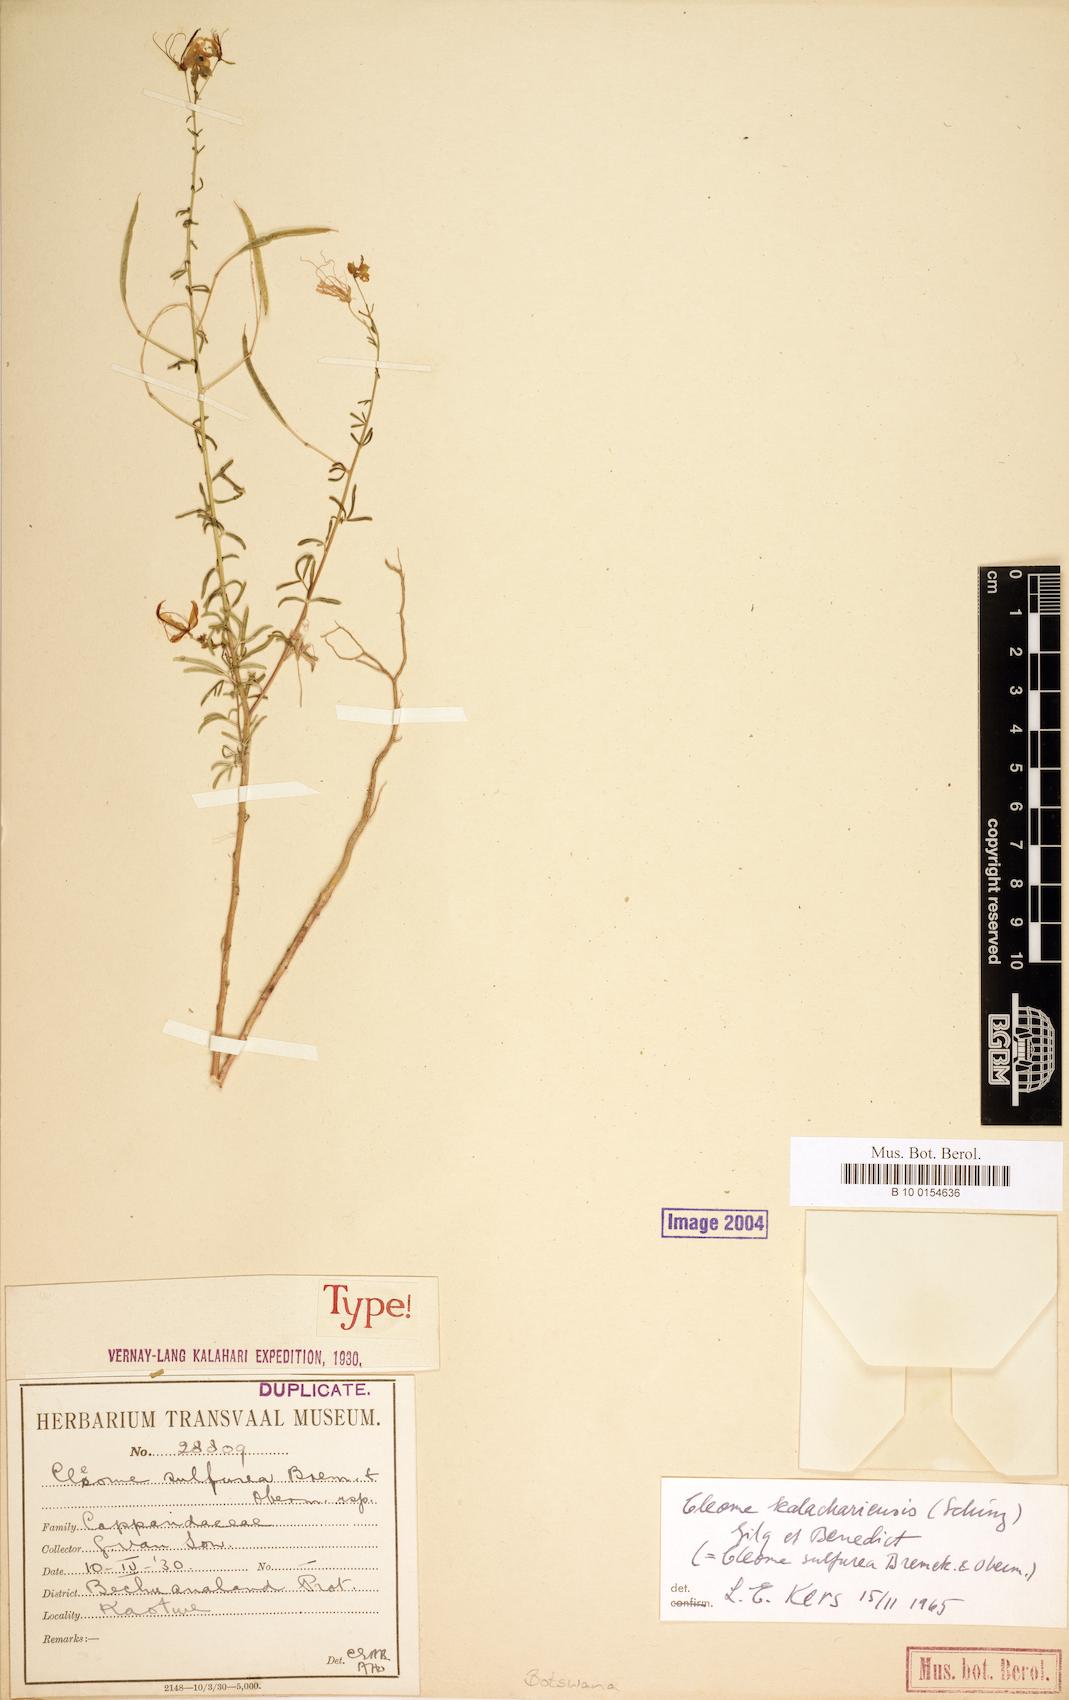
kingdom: Plantae
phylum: Tracheophyta
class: Magnoliopsida
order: Brassicales
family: Cleomaceae
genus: Kersia
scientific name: Kersia kalachariensis
